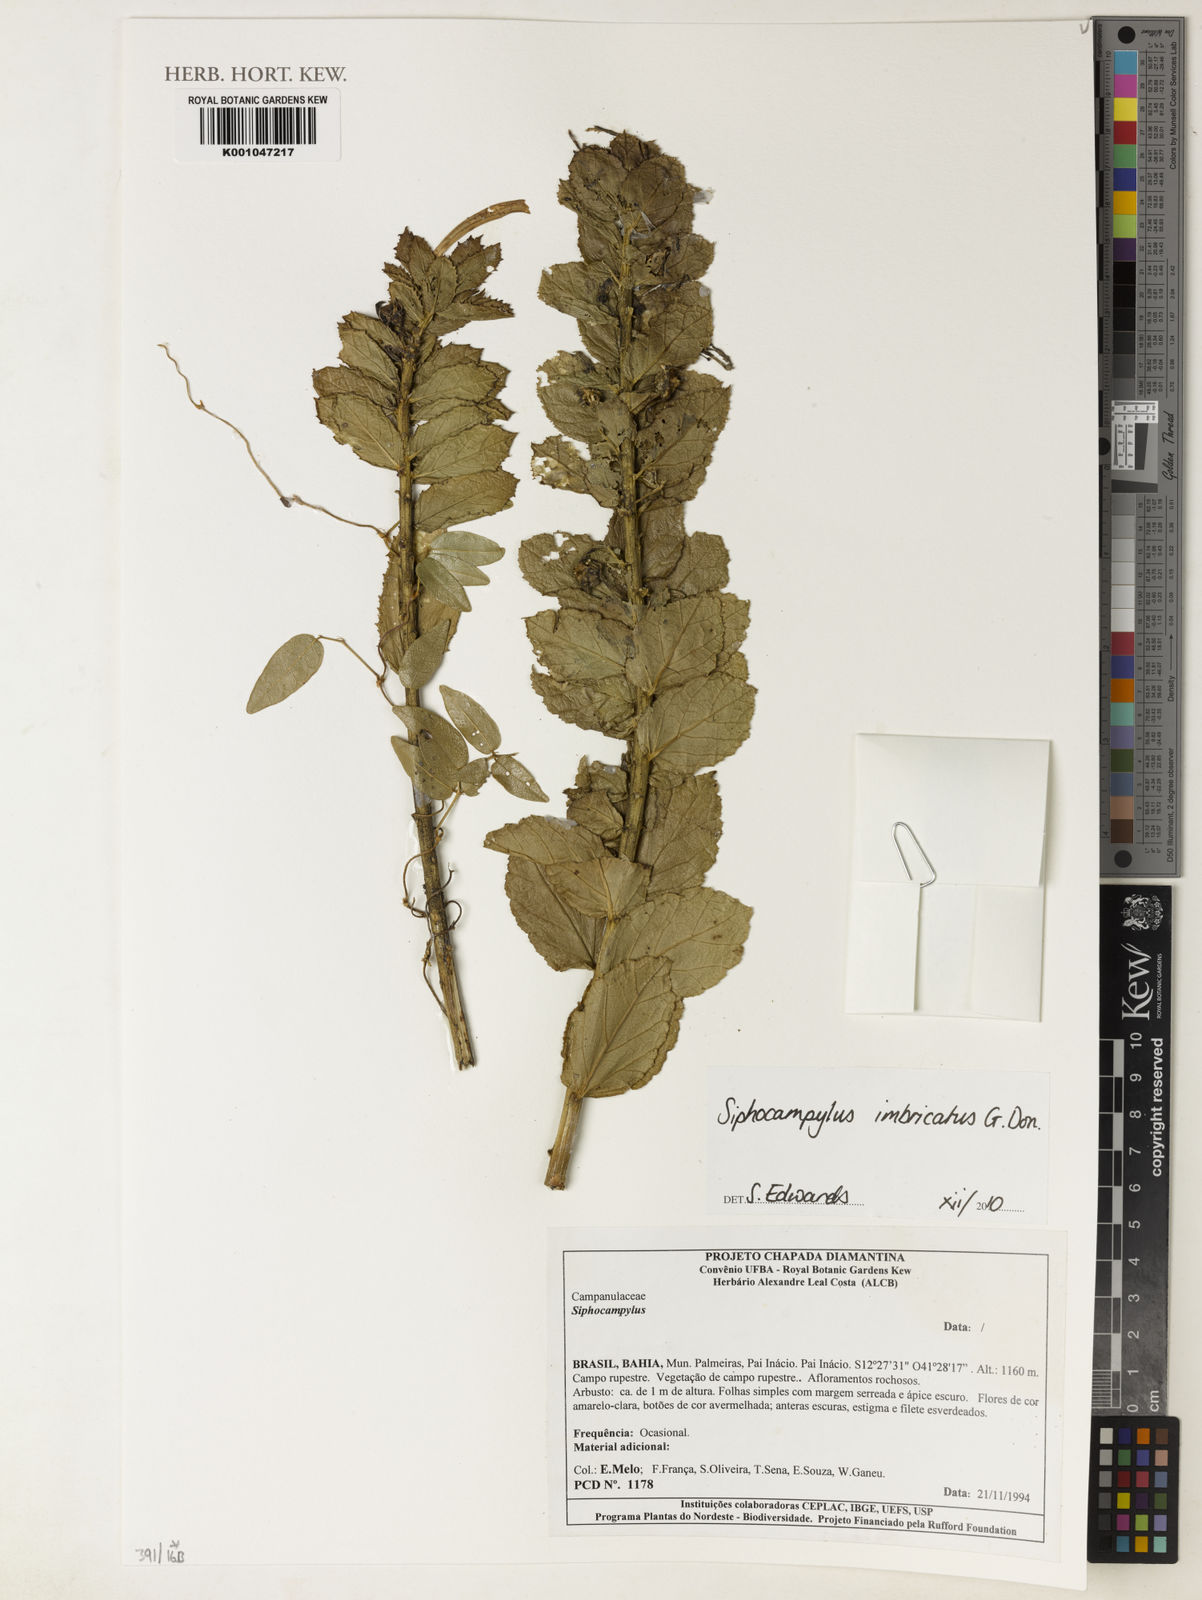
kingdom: Plantae
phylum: Tracheophyta
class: Magnoliopsida
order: Asterales
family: Campanulaceae
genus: Siphocampylus
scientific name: Siphocampylus imbricatus
